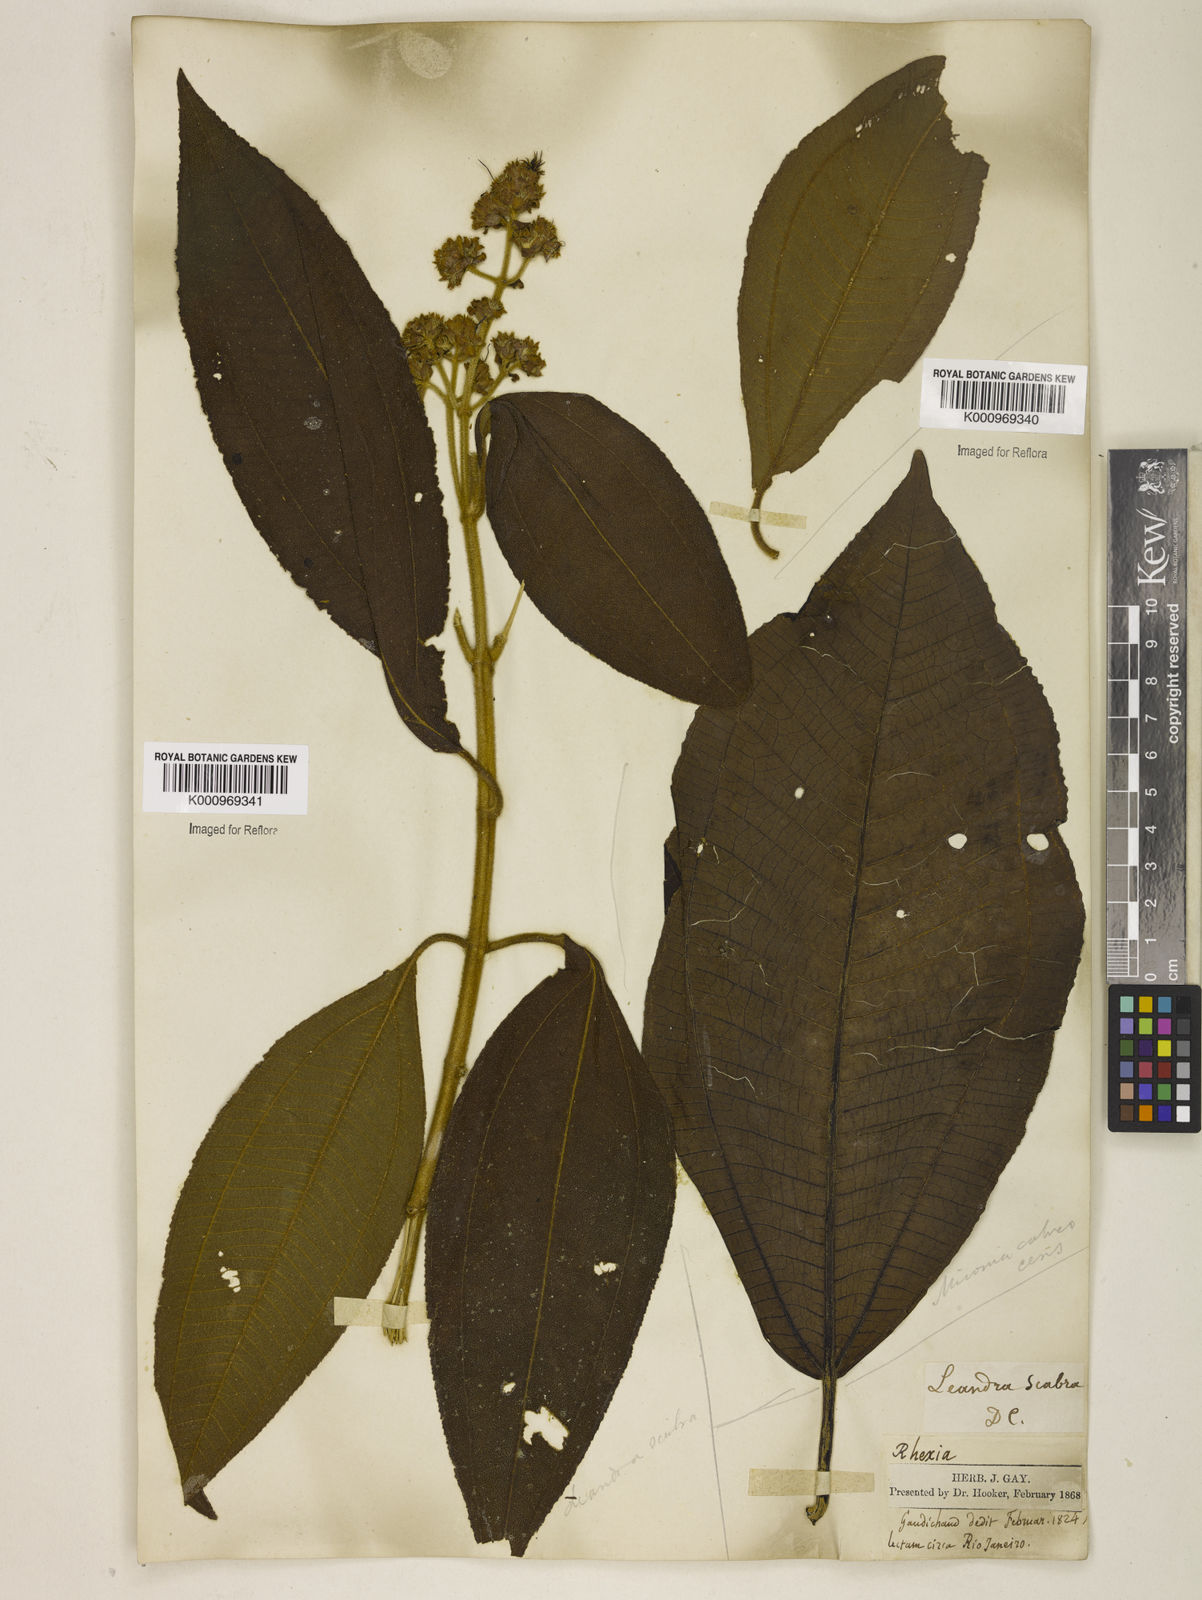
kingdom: Plantae
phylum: Tracheophyta
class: Magnoliopsida
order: Myrtales
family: Melastomataceae
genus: Miconia
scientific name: Miconia melastomoides
